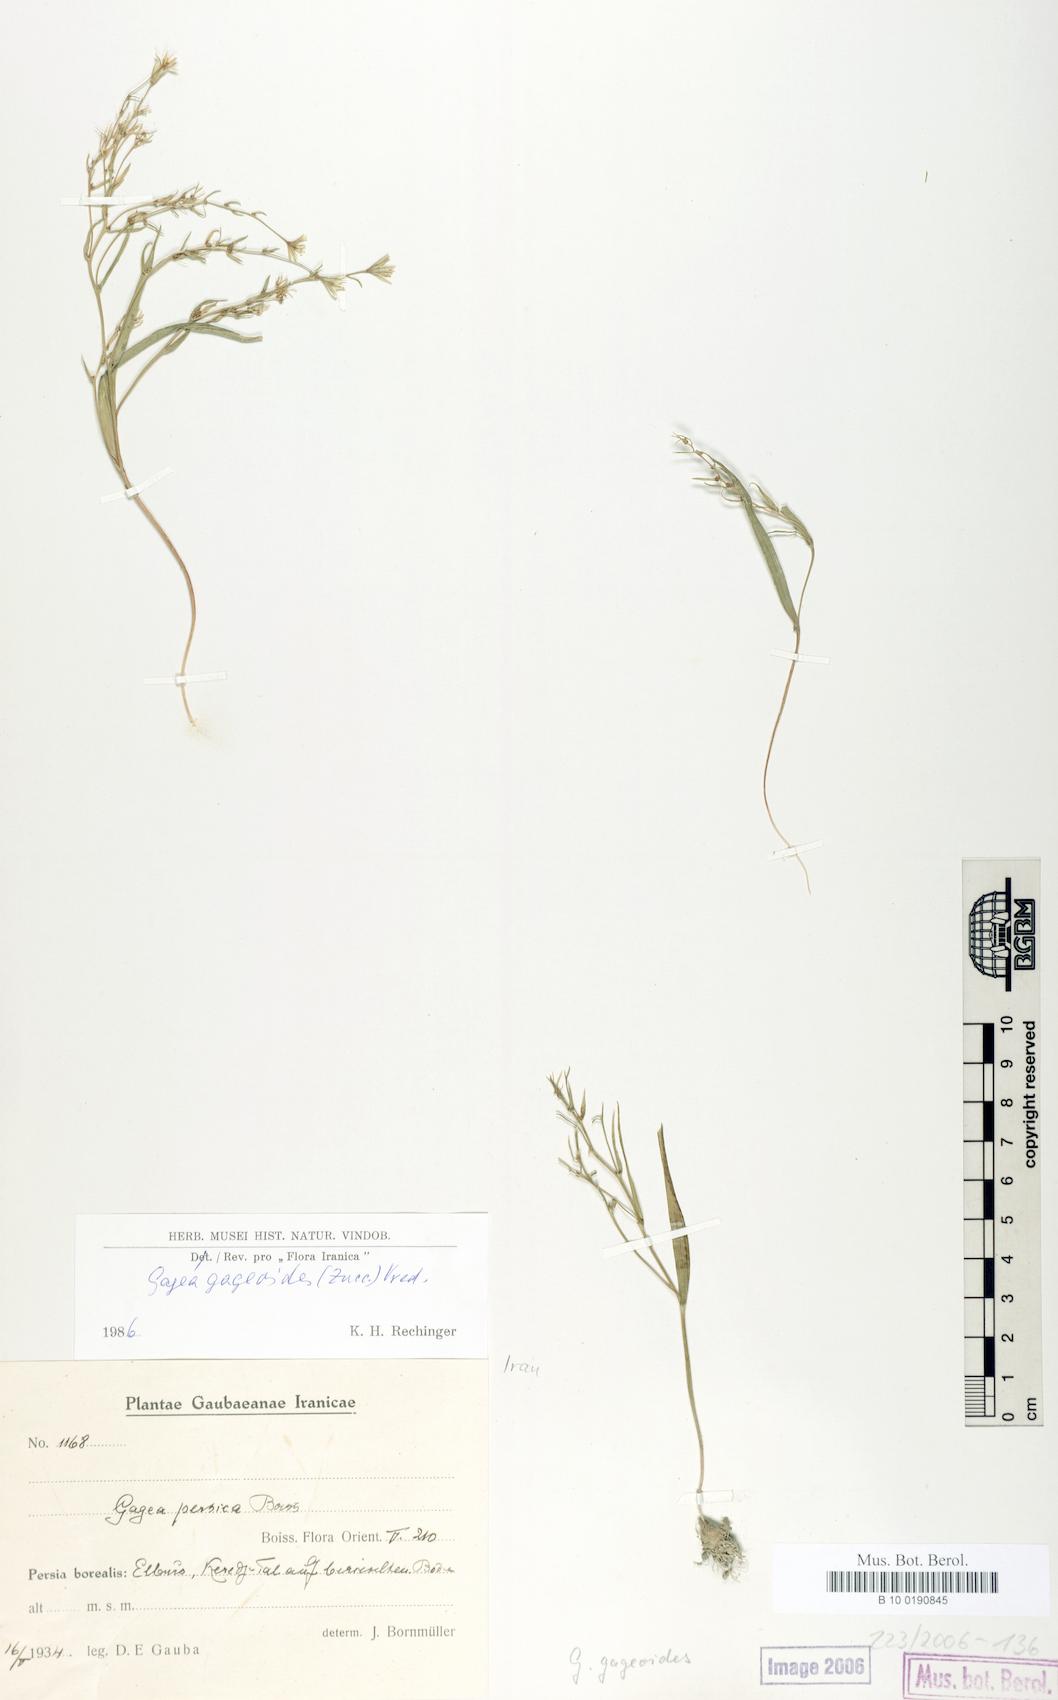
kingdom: Plantae
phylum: Tracheophyta
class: Liliopsida
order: Liliales
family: Liliaceae
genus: Gagea
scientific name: Gagea gageoides
